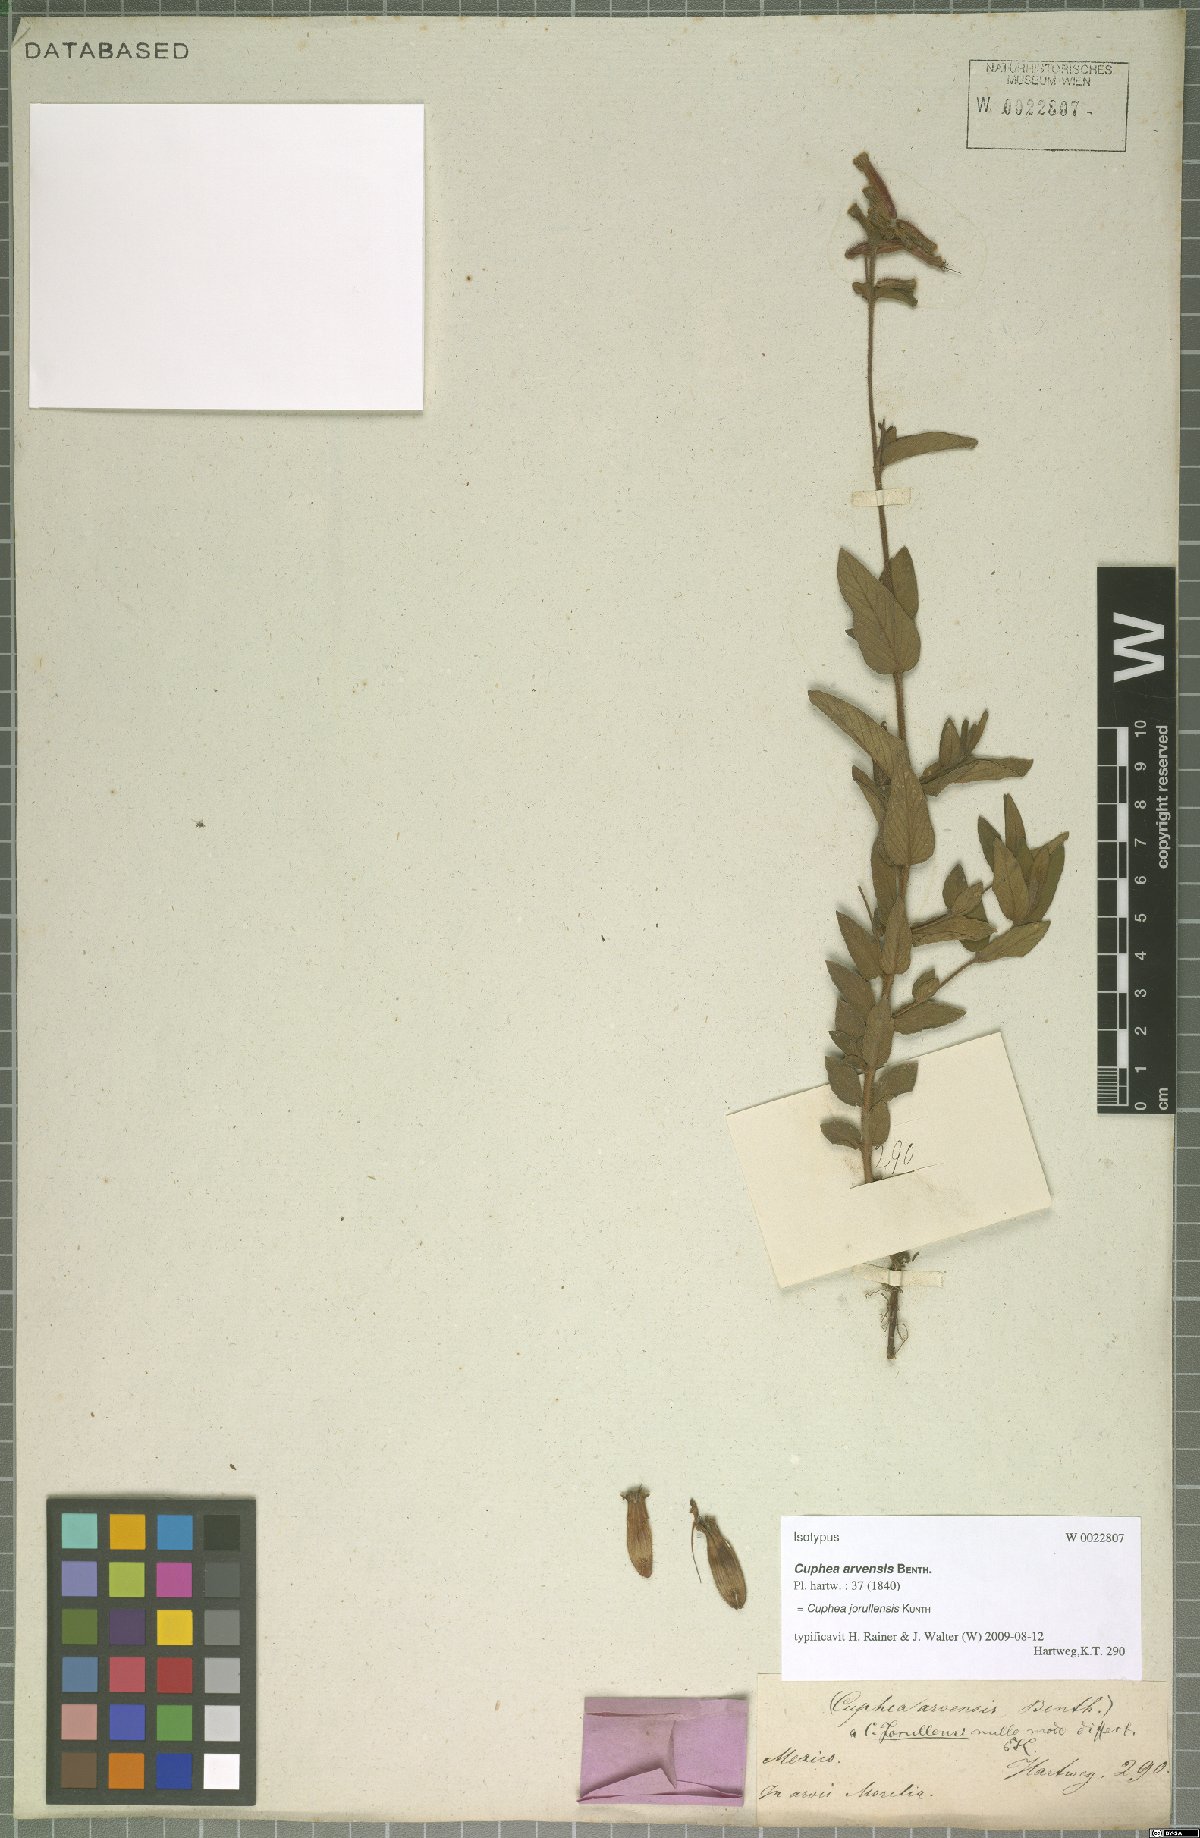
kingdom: Plantae
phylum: Tracheophyta
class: Magnoliopsida
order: Myrtales
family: Lythraceae
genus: Cuphea
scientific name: Cuphea jorullensis
